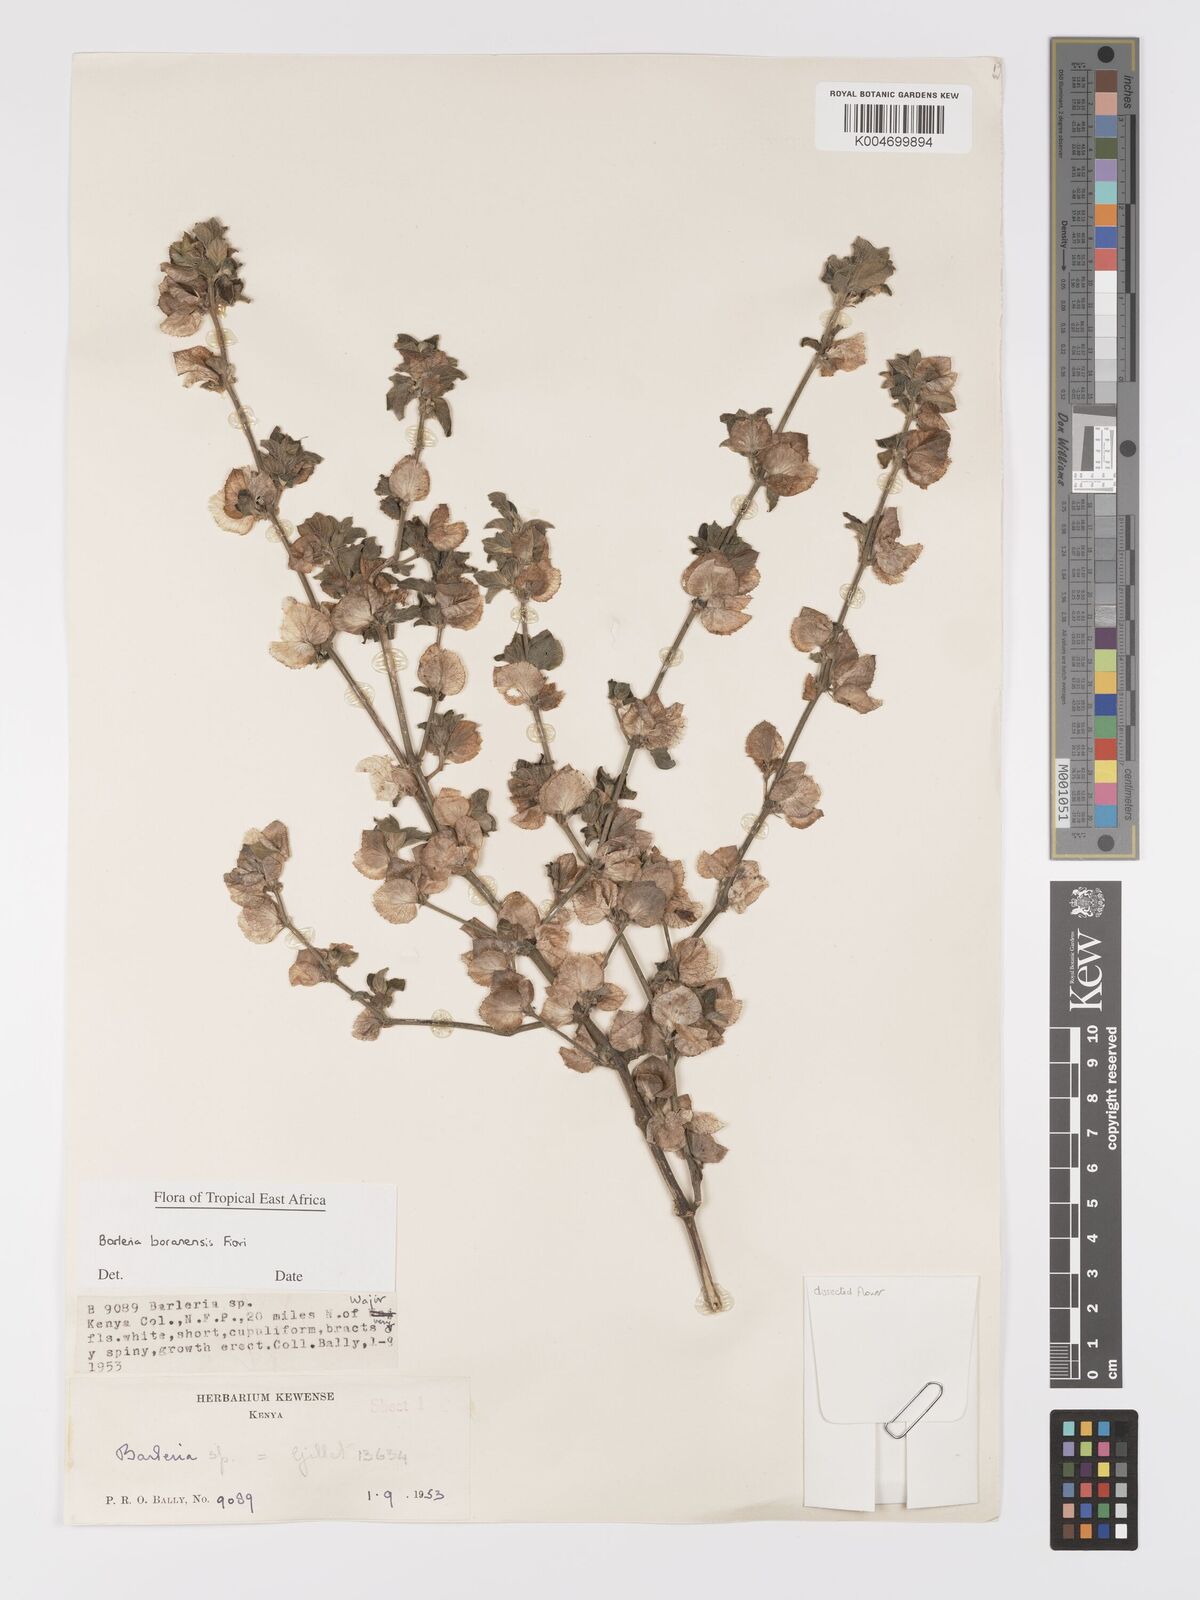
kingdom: Plantae
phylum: Tracheophyta
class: Magnoliopsida
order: Lamiales
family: Acanthaceae
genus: Barleria
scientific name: Barleria boranensis
